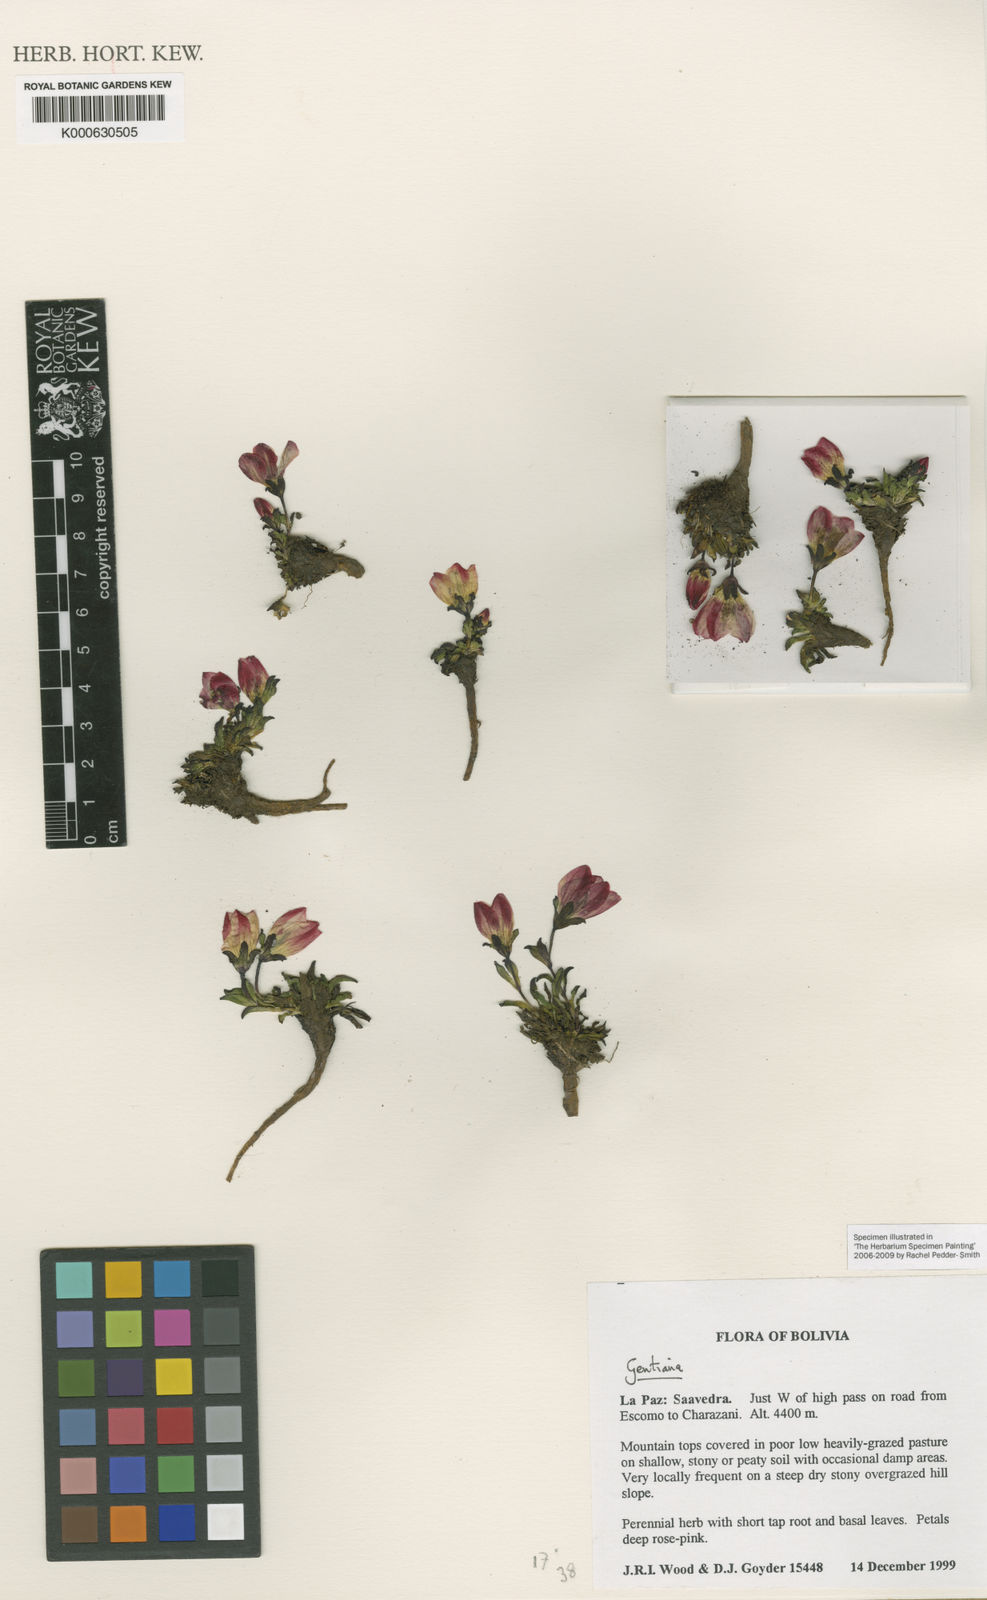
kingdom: Plantae
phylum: Tracheophyta
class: Magnoliopsida
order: Gentianales
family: Gentianaceae
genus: Gentianella
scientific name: Gentianella primuloides
